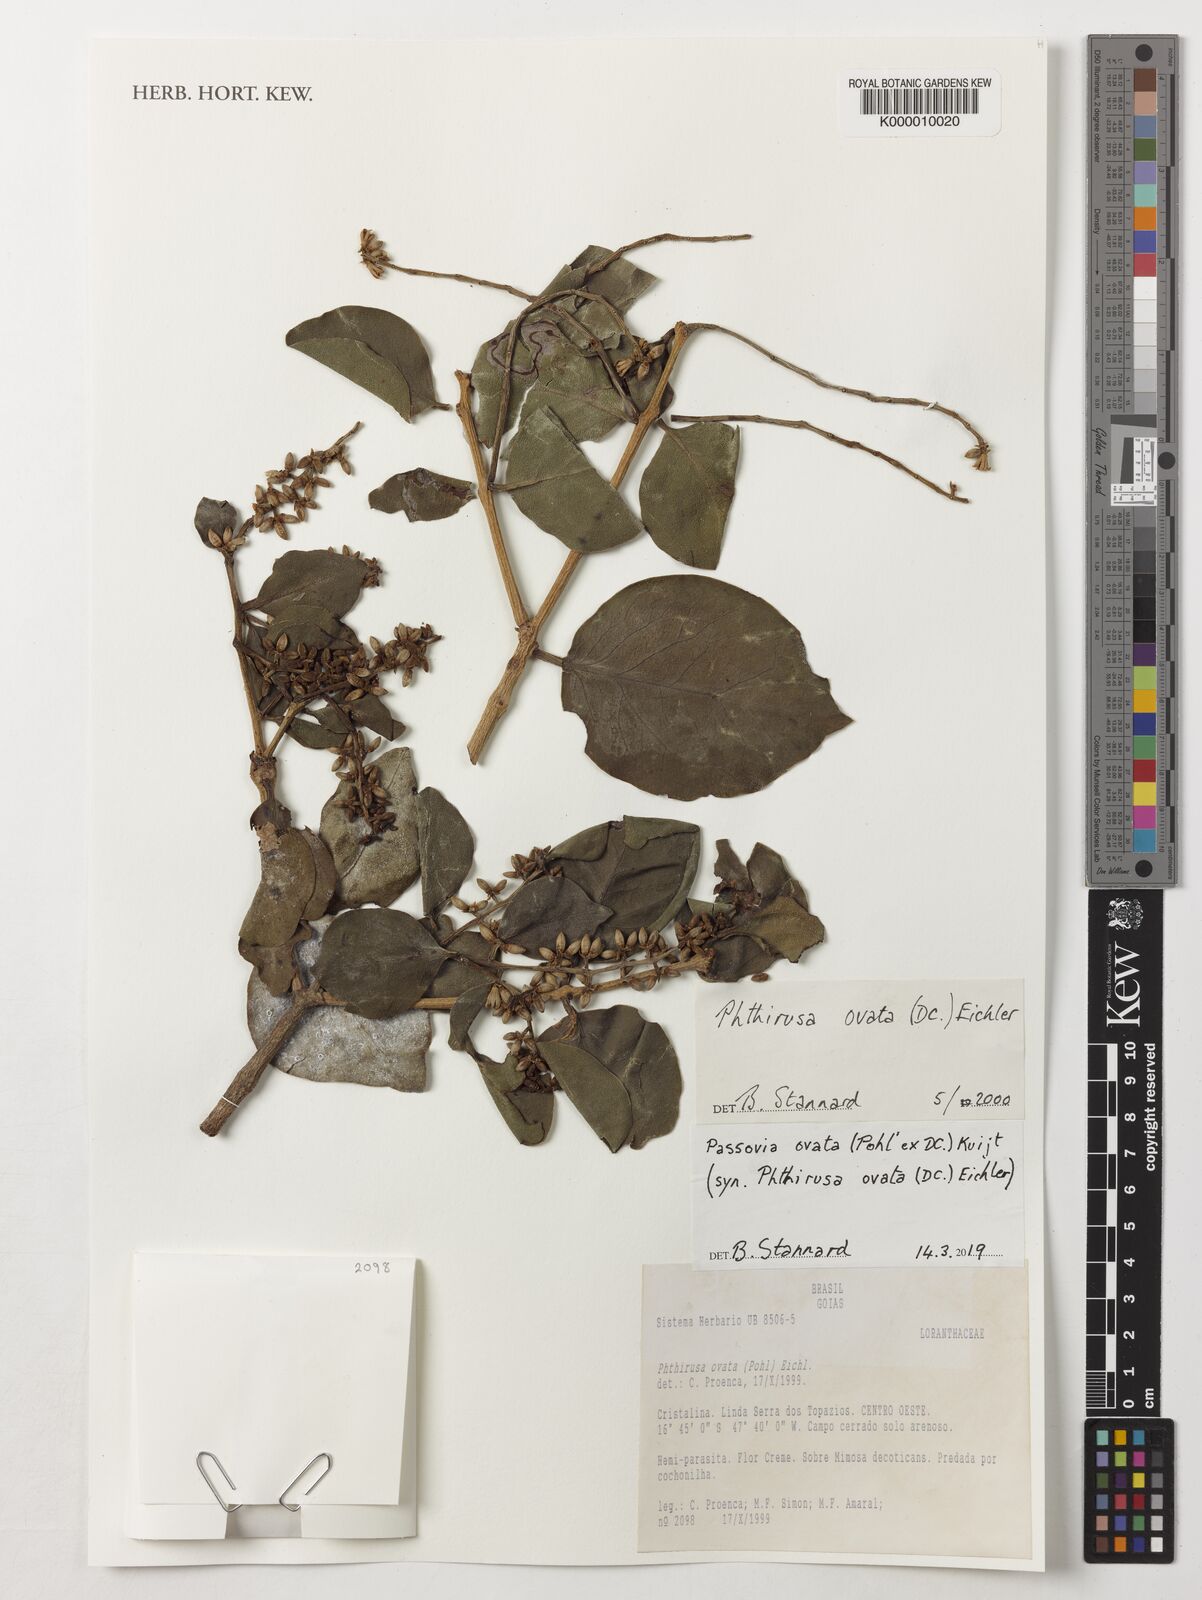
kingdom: Plantae
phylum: Tracheophyta
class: Magnoliopsida
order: Santalales
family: Loranthaceae
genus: Phthirusa
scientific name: Phthirusa
